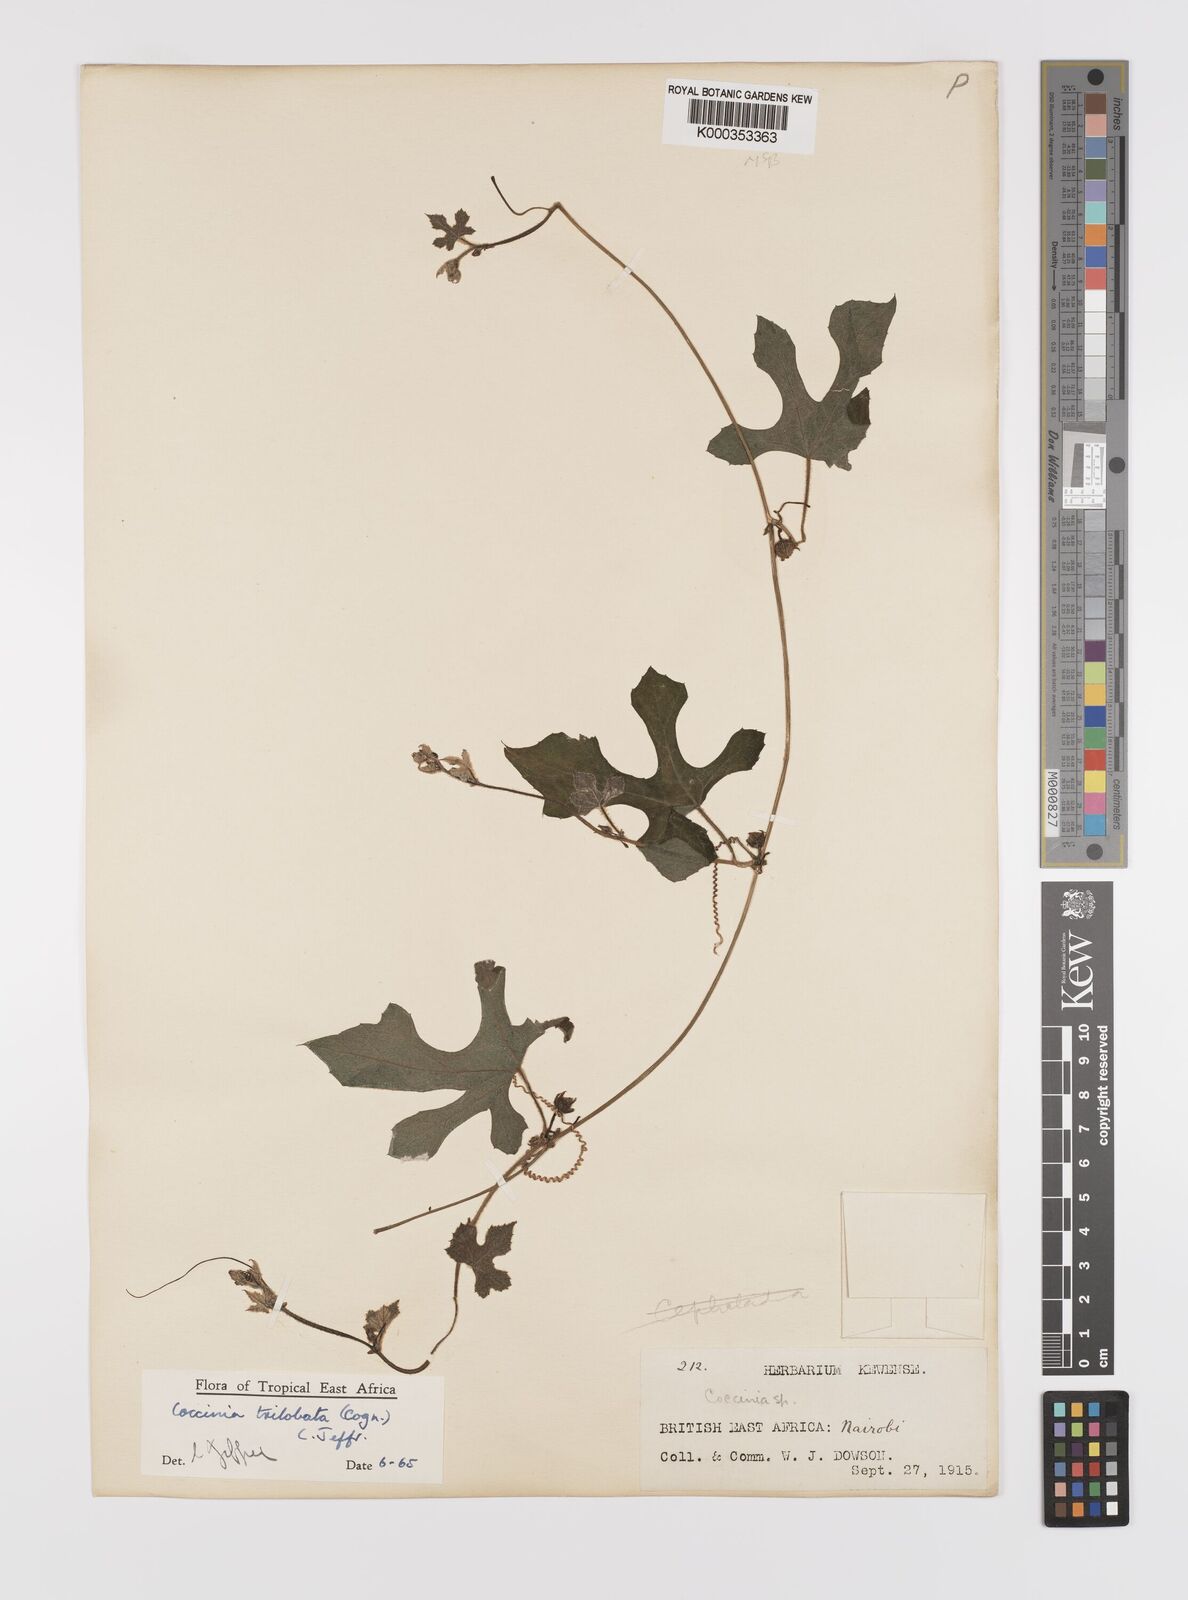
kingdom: Plantae
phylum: Tracheophyta
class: Magnoliopsida
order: Cucurbitales
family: Cucurbitaceae
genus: Coccinia
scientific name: Coccinia trilobata
